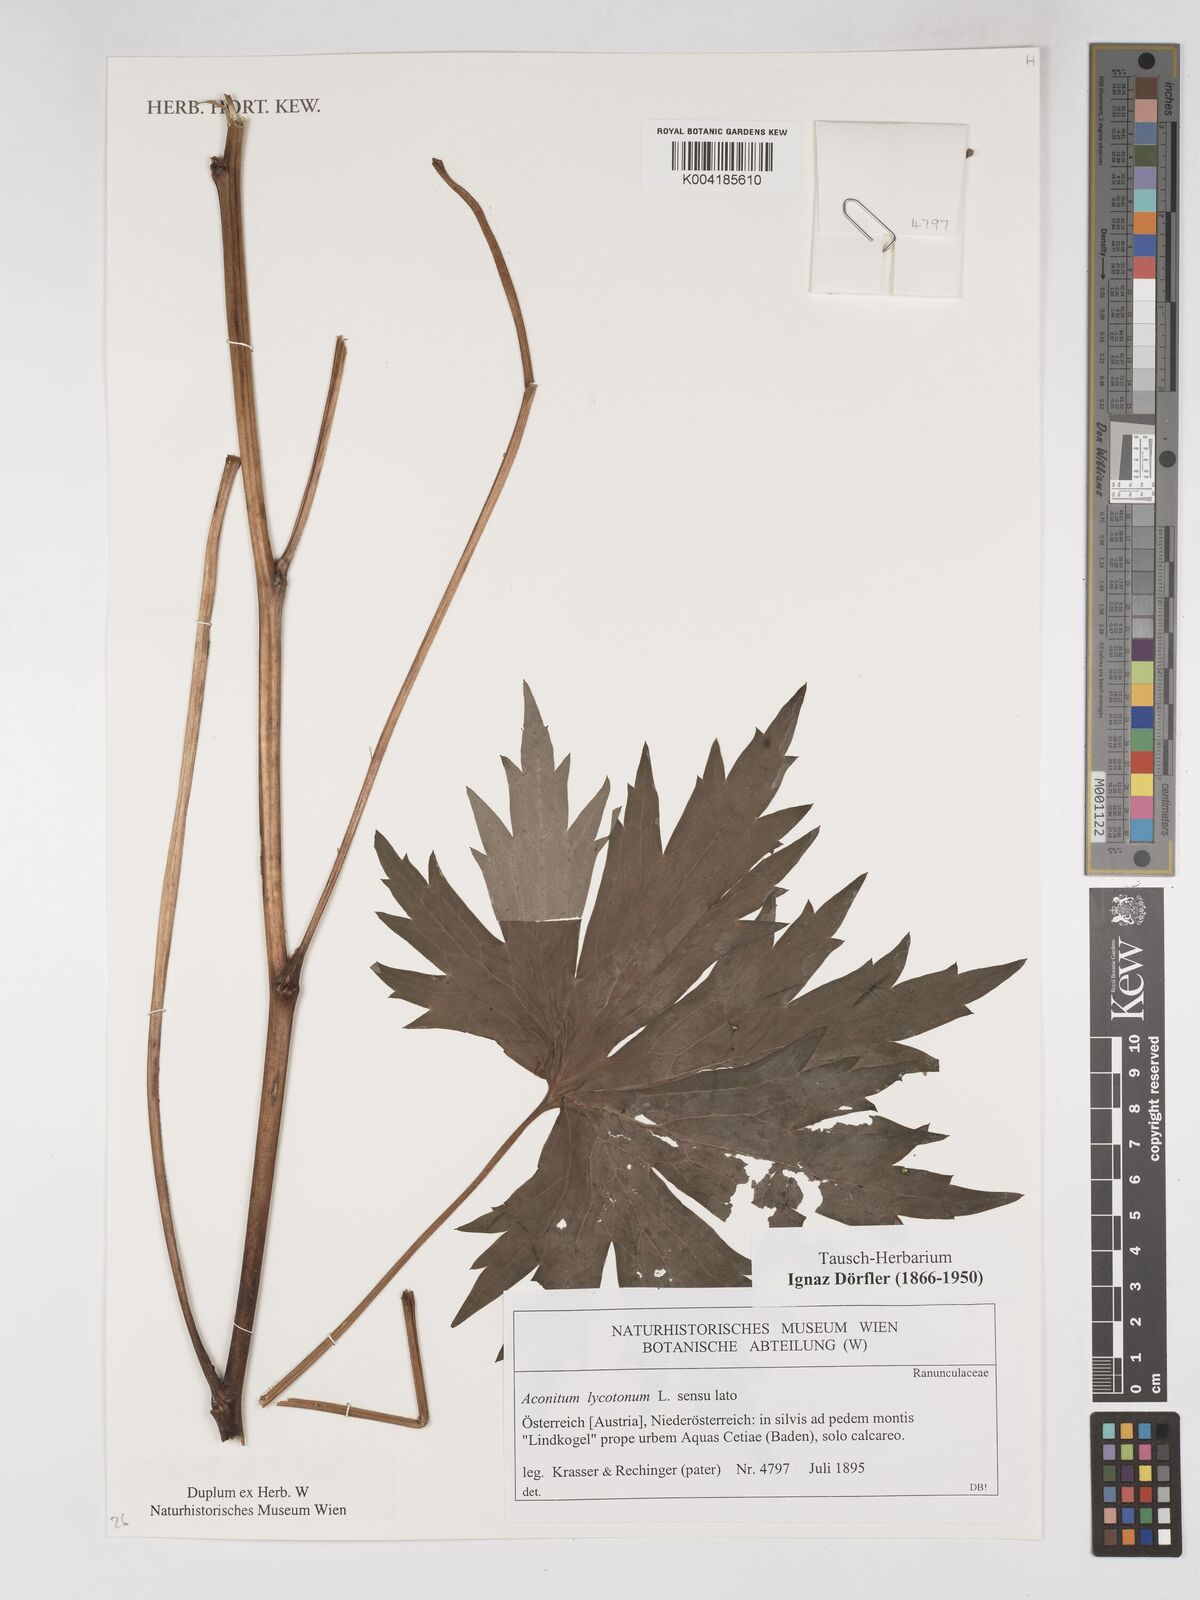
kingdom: Plantae
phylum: Tracheophyta
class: Magnoliopsida
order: Ranunculales
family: Ranunculaceae
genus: Aconitum
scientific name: Aconitum lycoctonum
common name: Wolf's-bane
